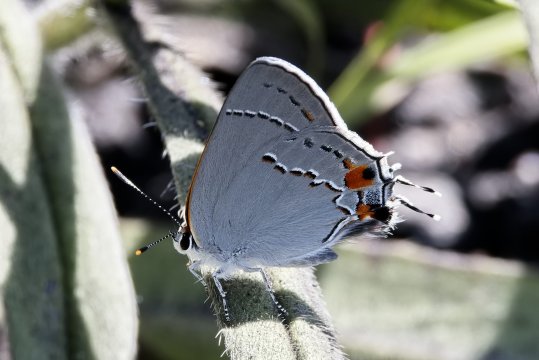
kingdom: Animalia
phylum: Arthropoda
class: Insecta
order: Lepidoptera
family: Lycaenidae
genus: Strymon
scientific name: Strymon melinus
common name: Gray Hairstreak
